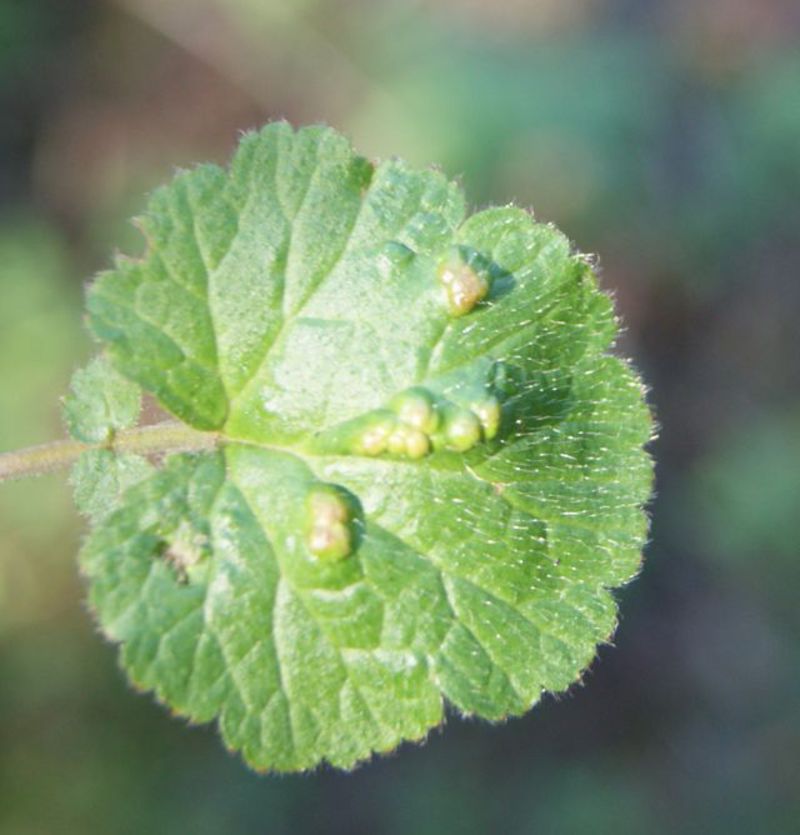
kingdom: Animalia
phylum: Arthropoda
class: Arachnida
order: Trombidiformes
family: Eriophyidae
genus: Cecidophyes
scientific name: Cecidophyes nudus
